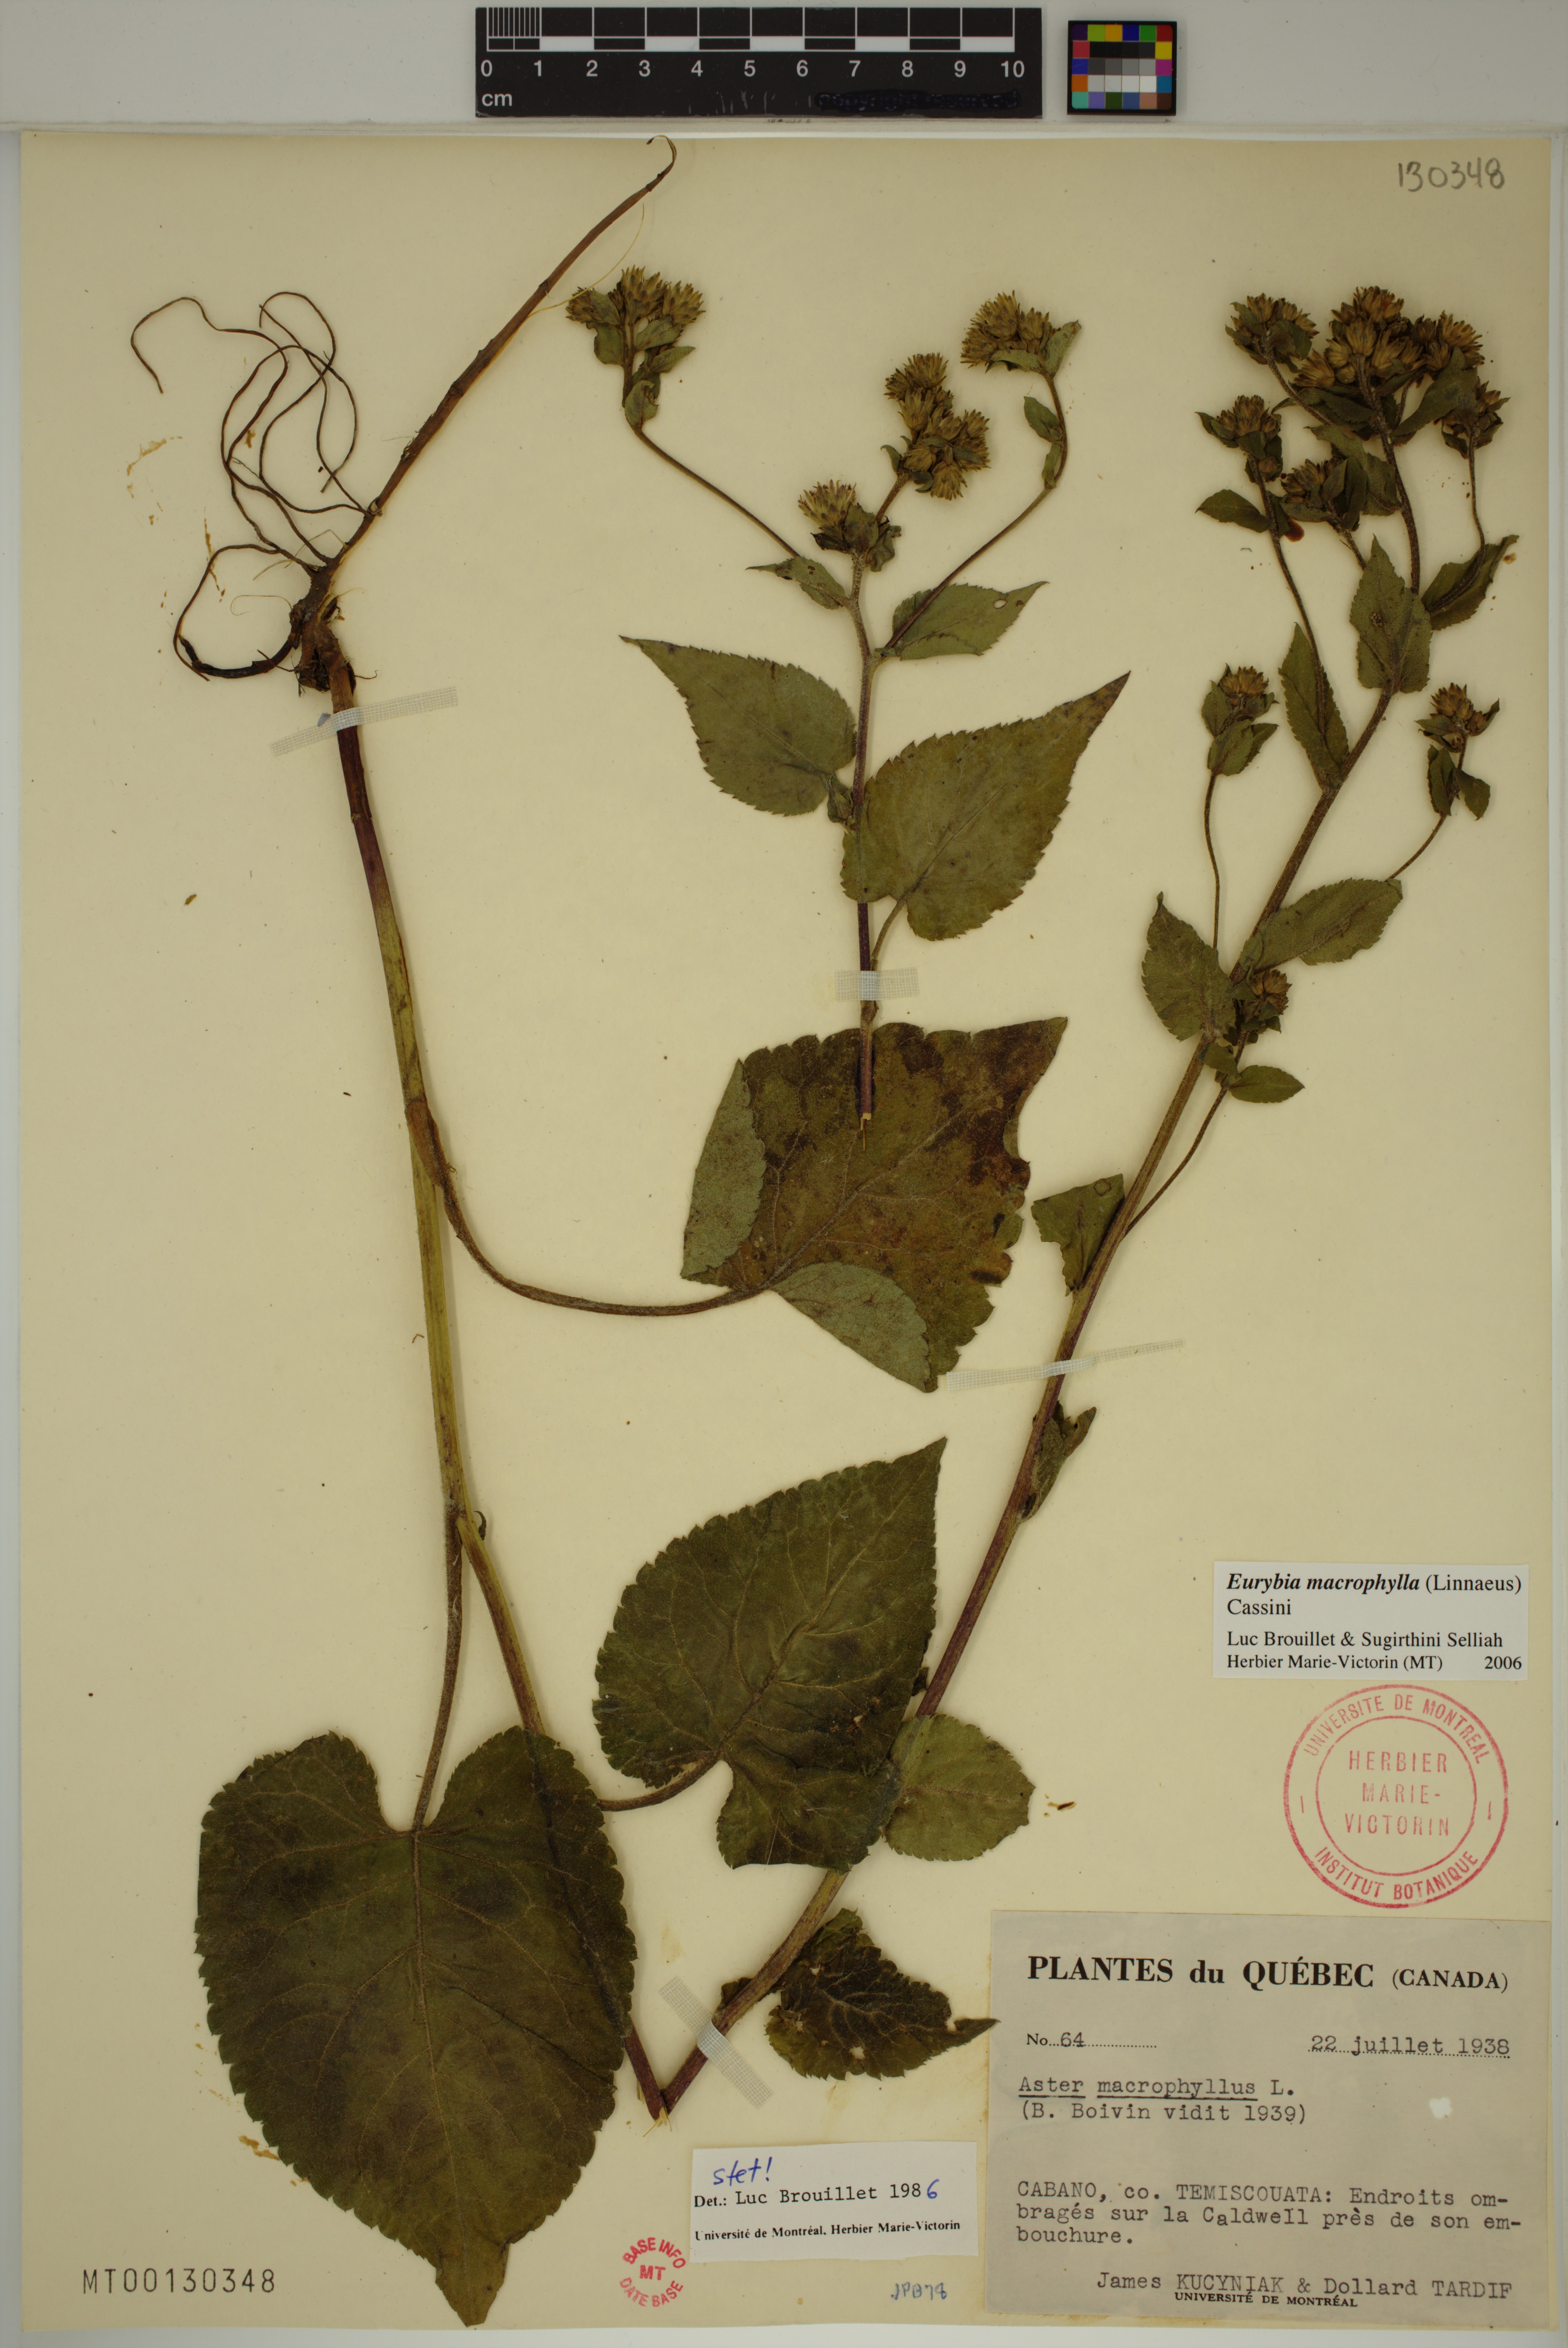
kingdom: Plantae
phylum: Tracheophyta
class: Magnoliopsida
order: Asterales
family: Asteraceae
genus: Eurybia
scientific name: Eurybia macrophylla
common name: Big-leaved aster
